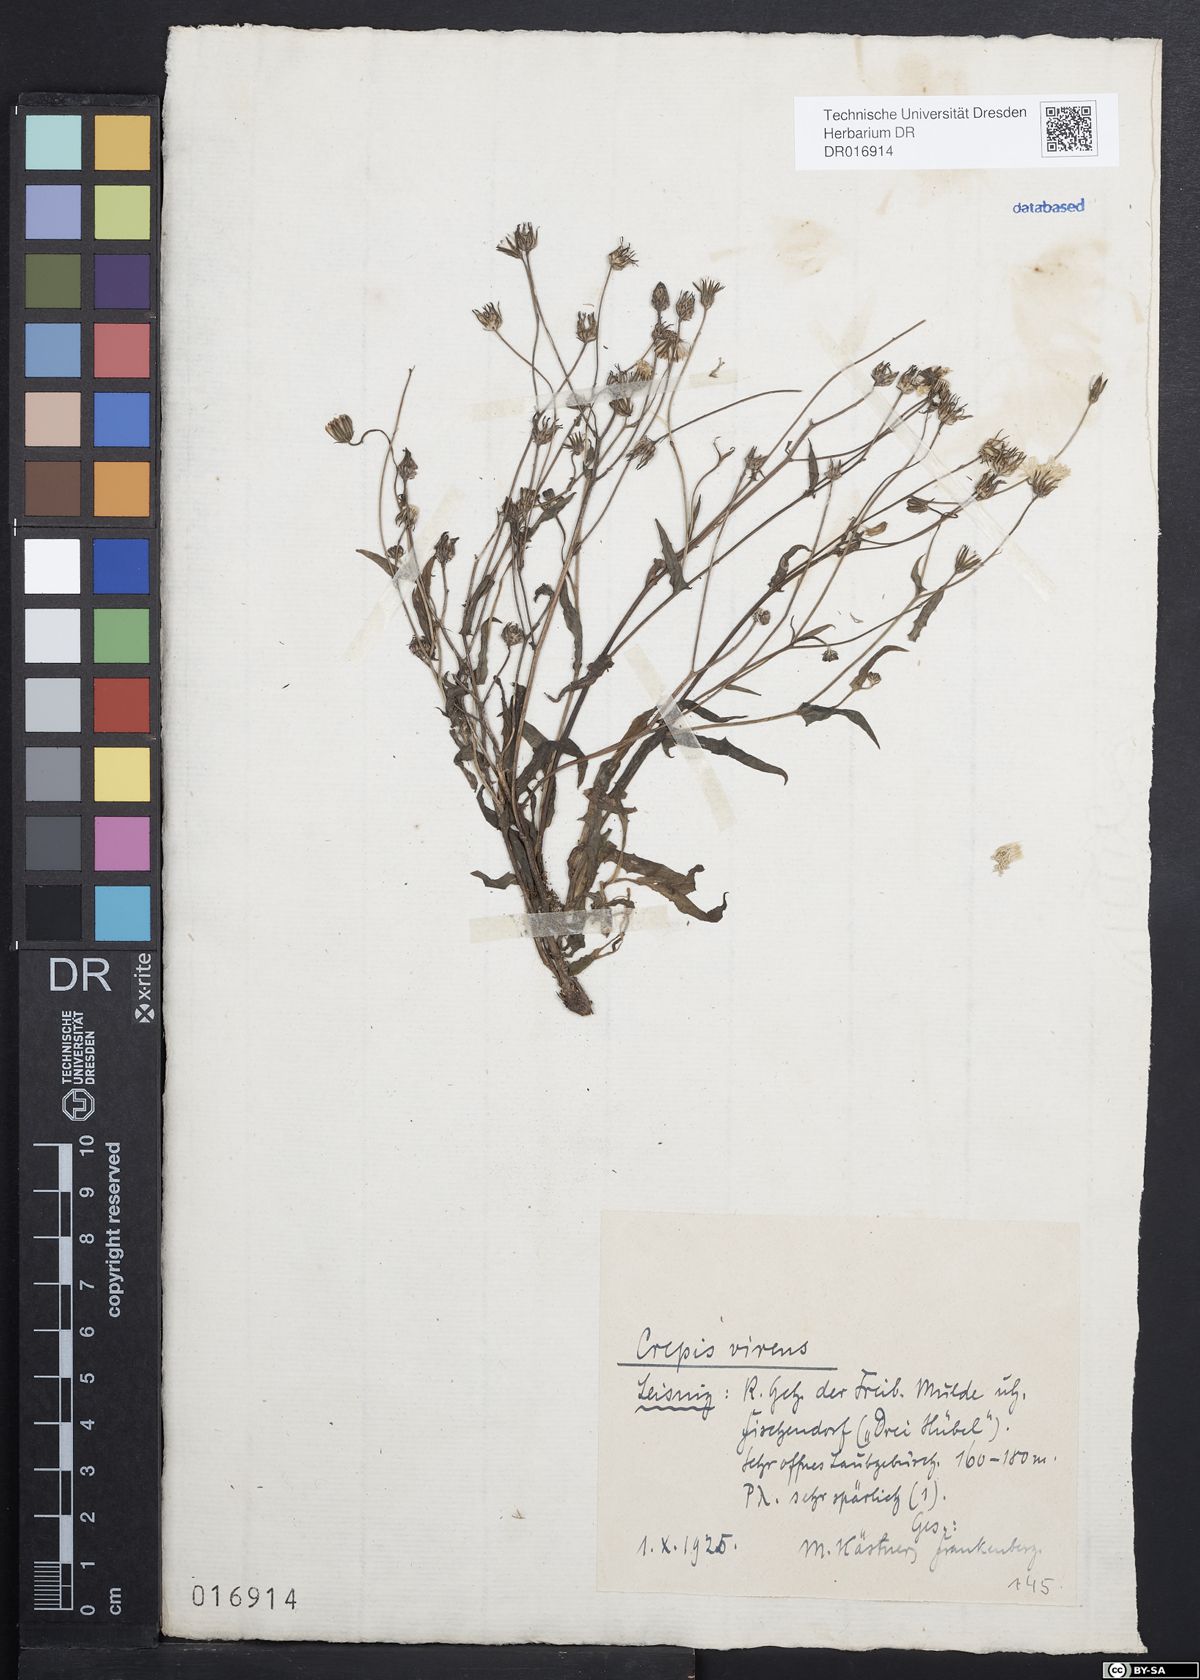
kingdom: Plantae
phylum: Tracheophyta
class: Magnoliopsida
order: Asterales
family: Asteraceae
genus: Crepis
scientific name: Crepis capillaris
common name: Smooth hawksbeard
